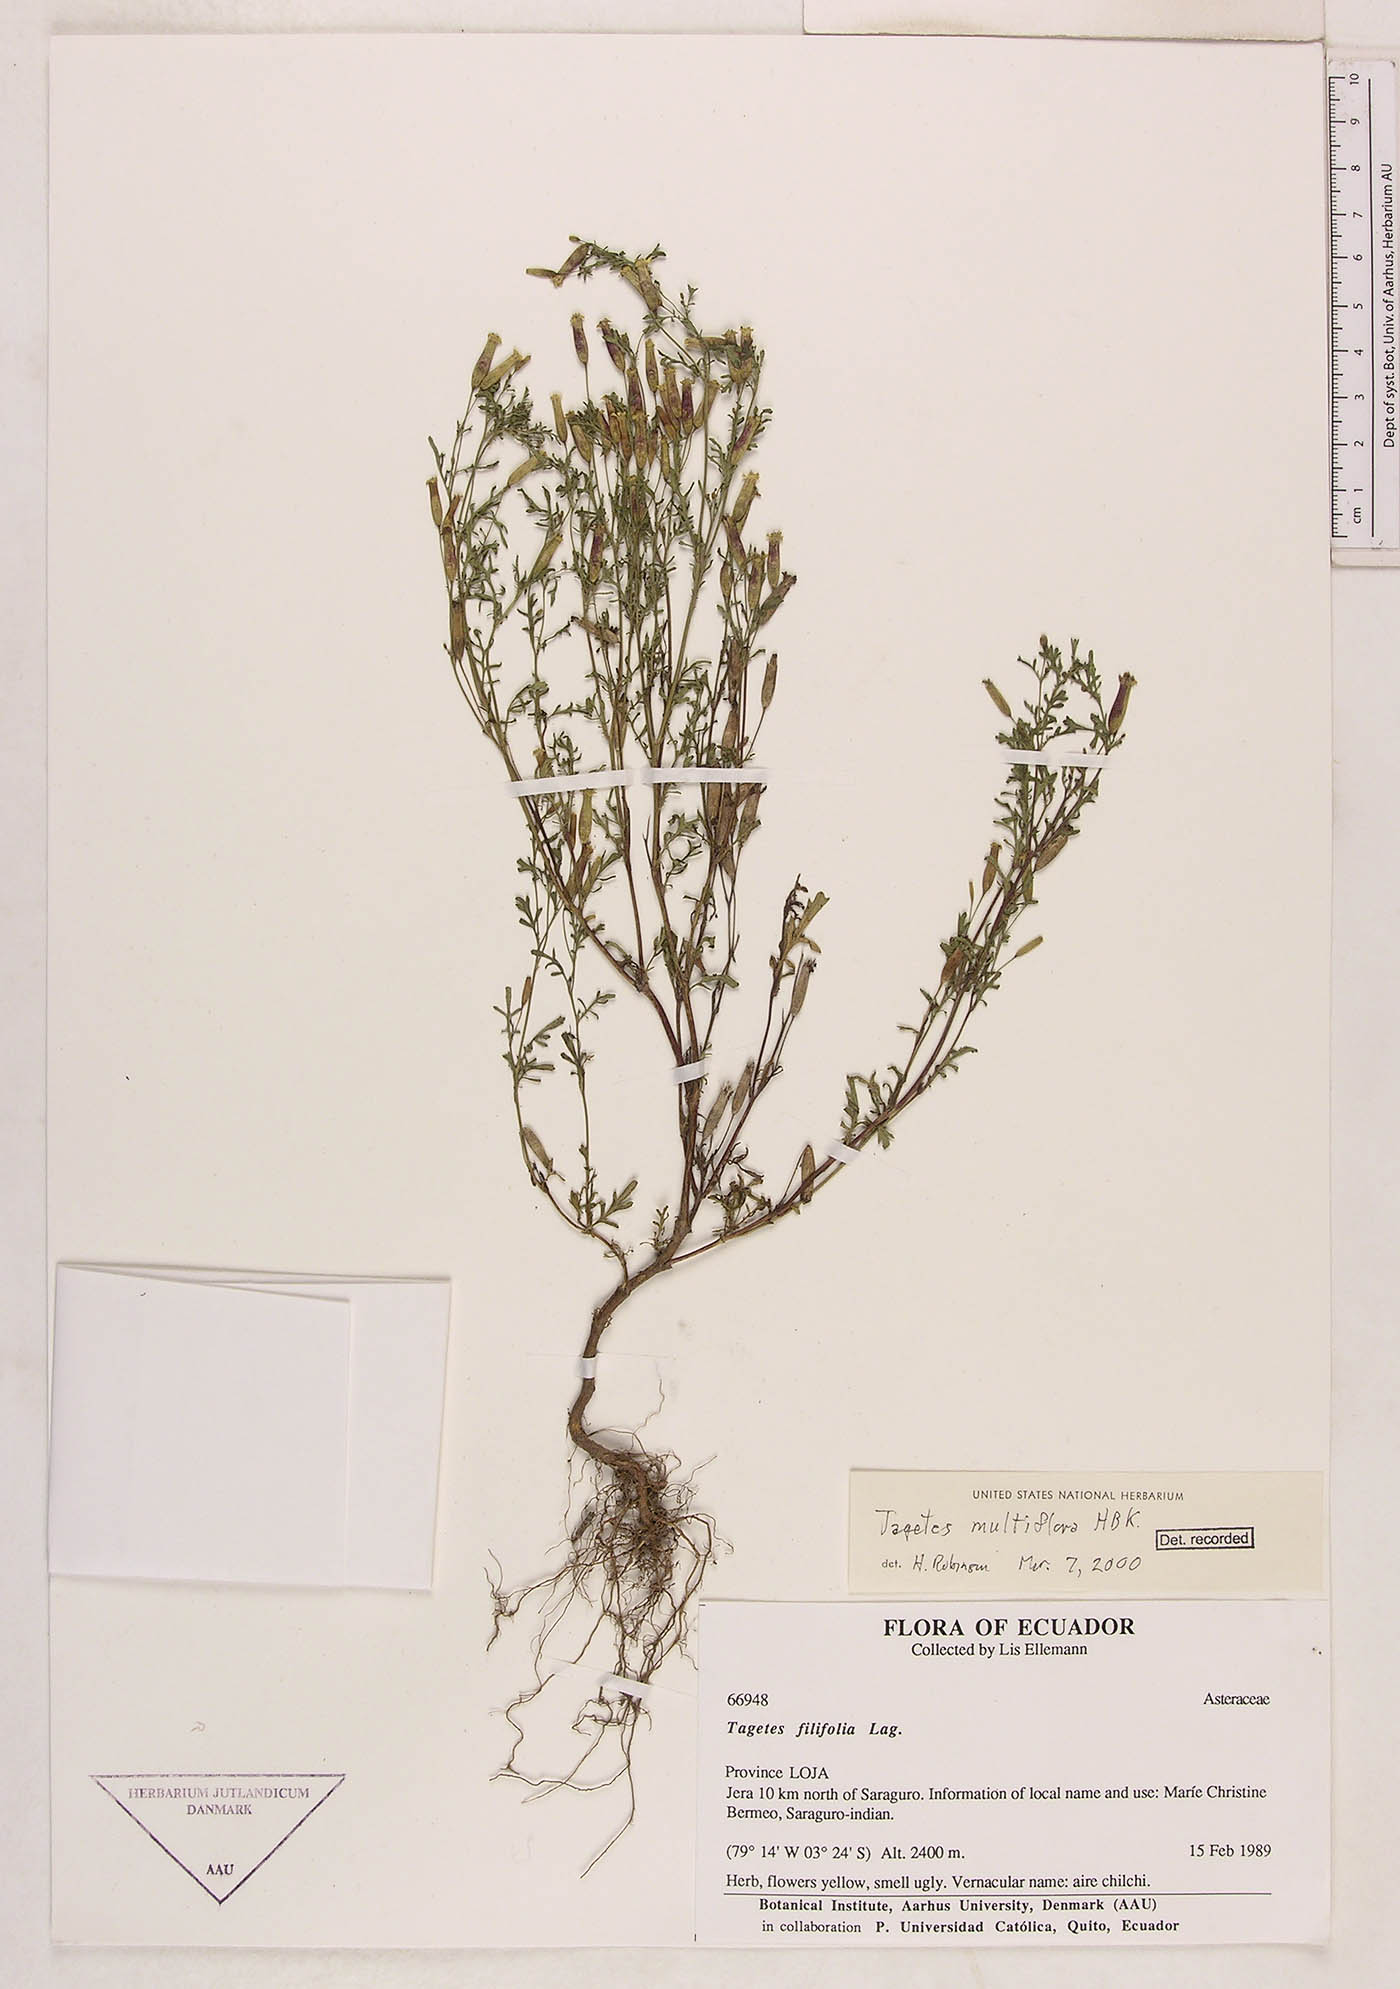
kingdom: Plantae
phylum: Tracheophyta
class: Magnoliopsida
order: Asterales
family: Asteraceae
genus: Tagetes
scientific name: Tagetes multiflora
